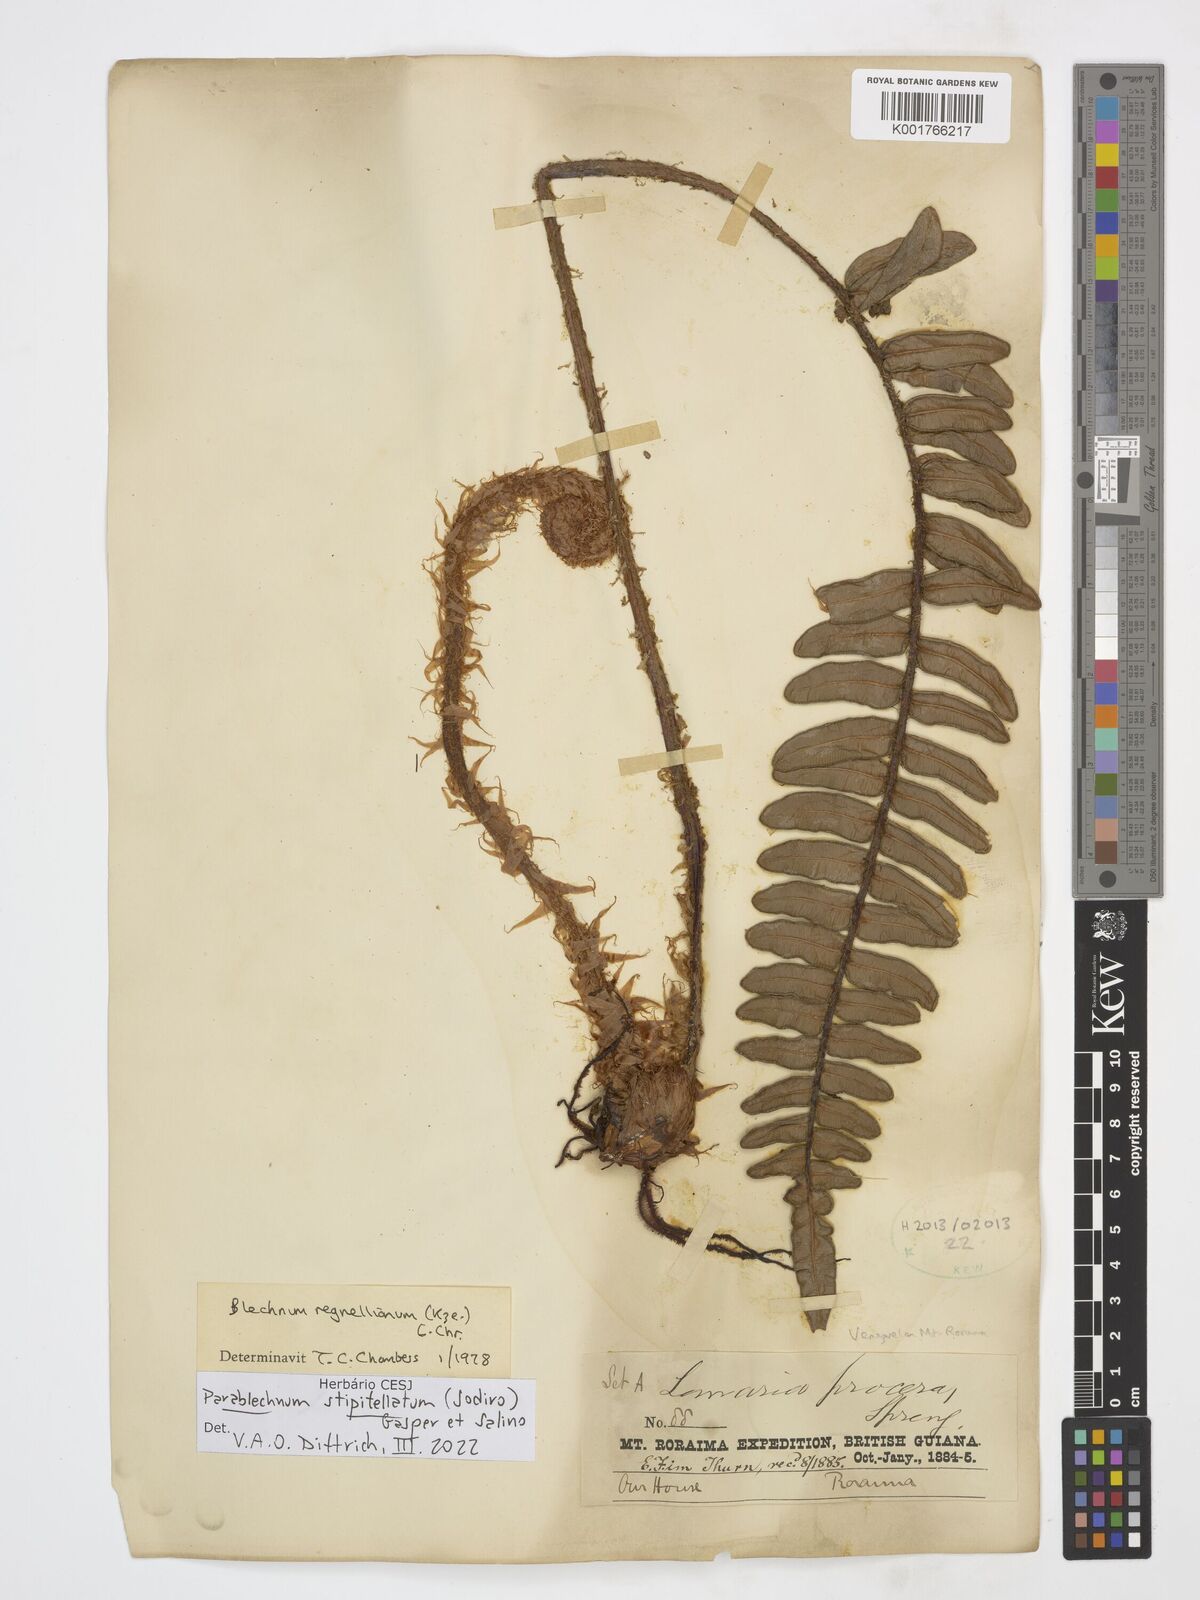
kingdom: Plantae
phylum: Tracheophyta
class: Polypodiopsida
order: Polypodiales
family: Blechnaceae
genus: Parablechnum
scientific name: Parablechnum stipitellatum
